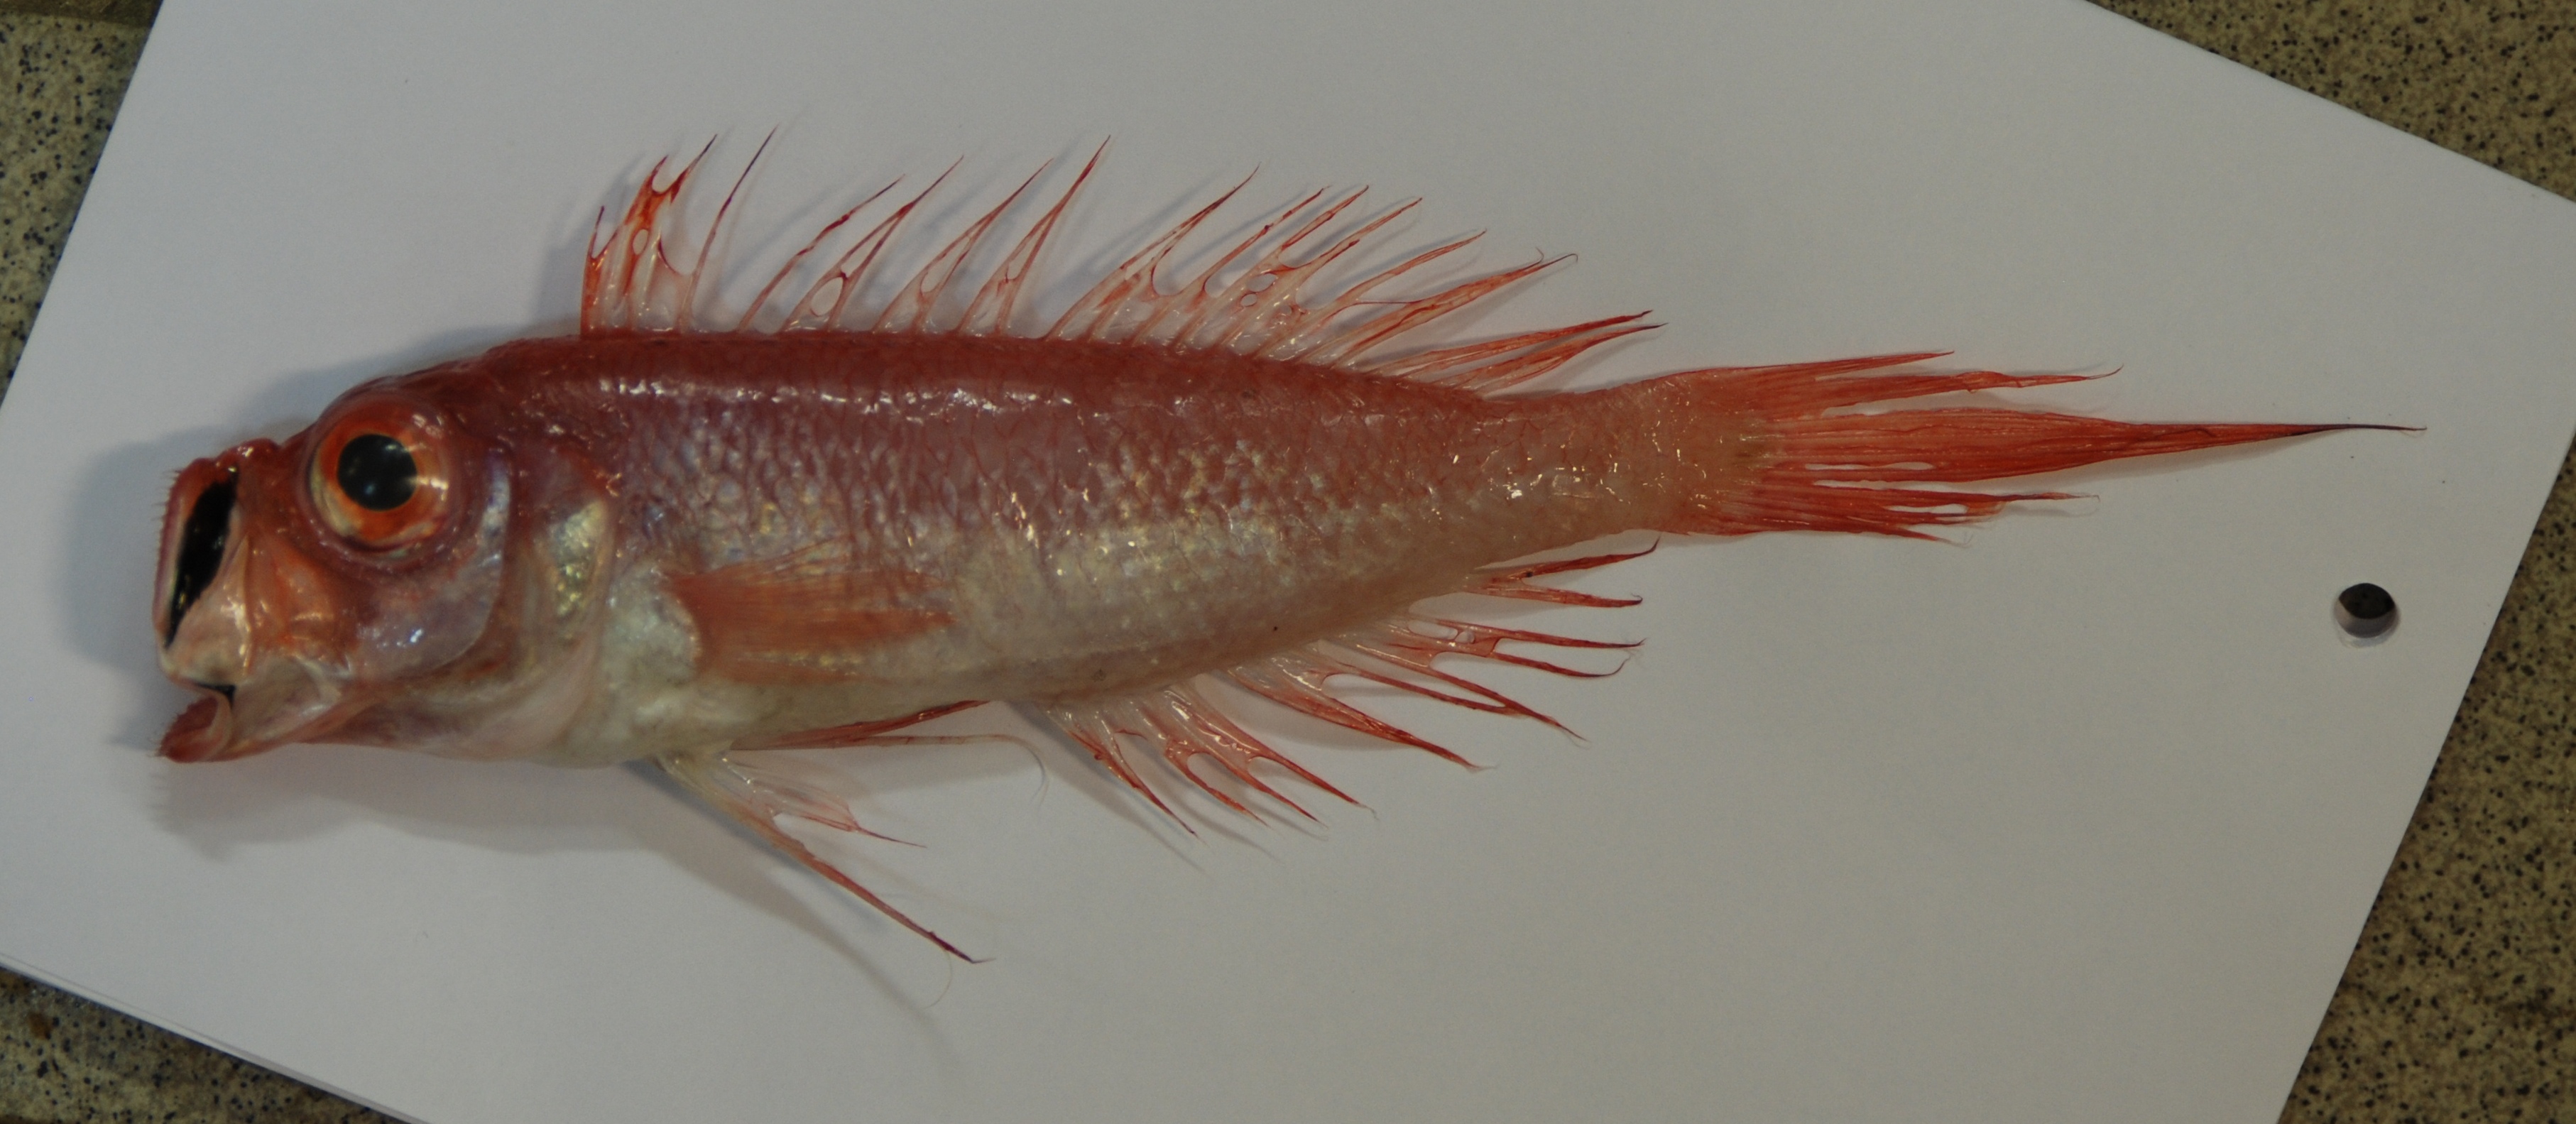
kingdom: Animalia
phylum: Chordata
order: Perciformes
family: Cepolidae
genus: Sphenanthias
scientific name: Sphenanthias simoterus
